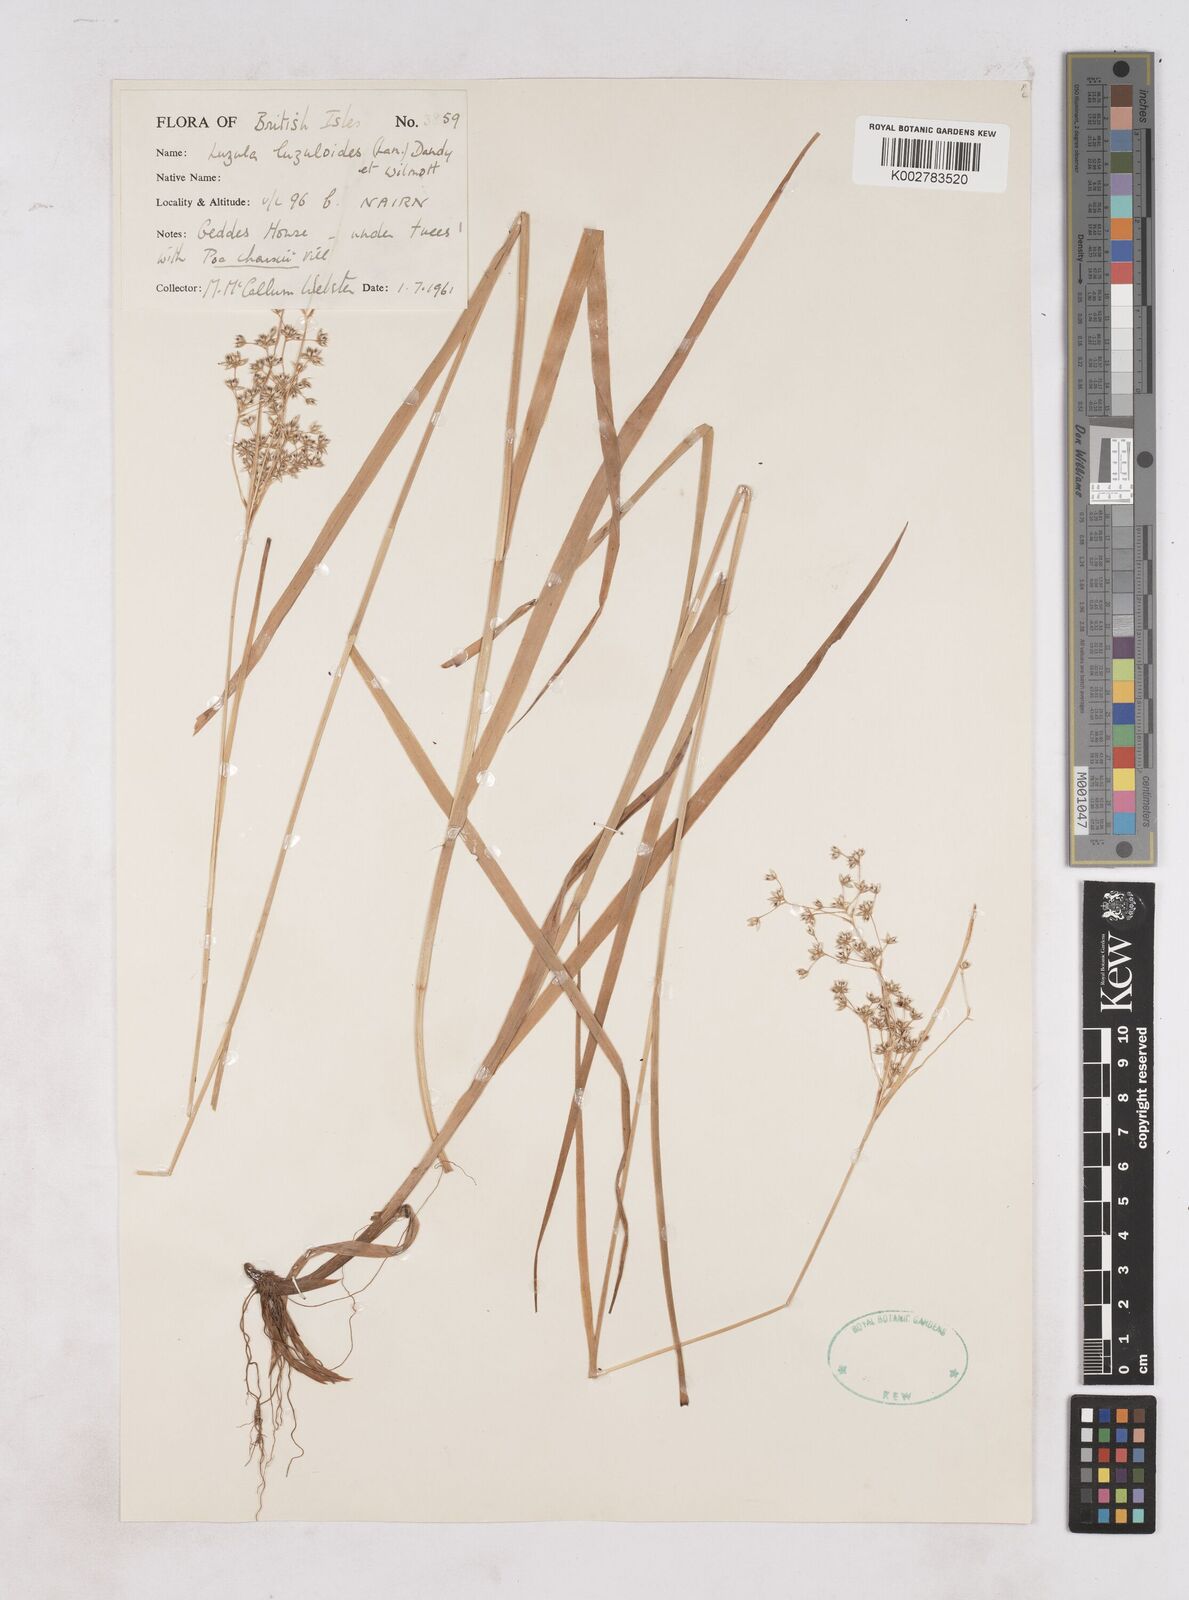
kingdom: Plantae
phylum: Tracheophyta
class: Liliopsida
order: Poales
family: Juncaceae
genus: Luzula
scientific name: Luzula luzuloides
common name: White wood-rush
